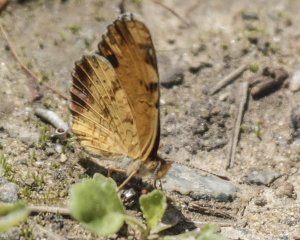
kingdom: Animalia
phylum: Arthropoda
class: Insecta
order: Lepidoptera
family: Nymphalidae
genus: Phyciodes
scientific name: Phyciodes tharos
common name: Northern Crescent
